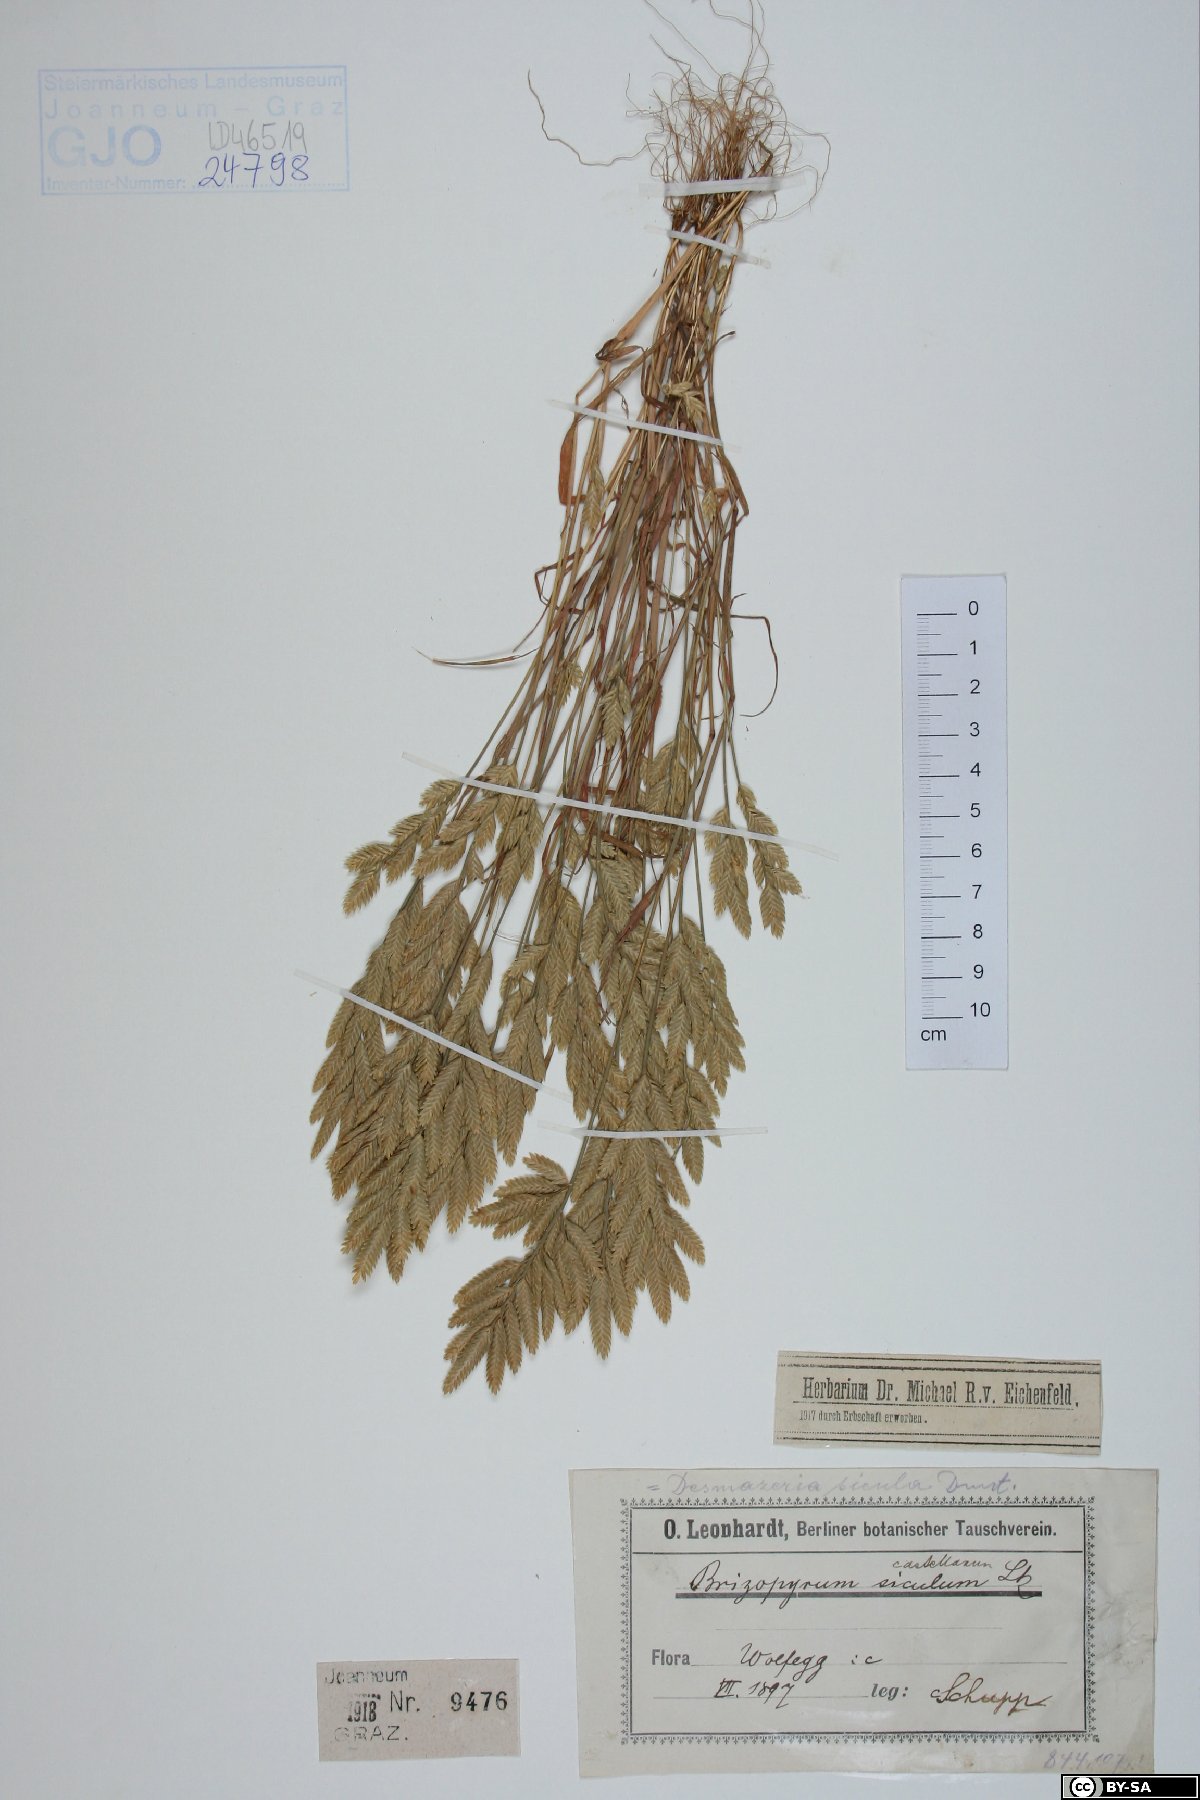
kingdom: Plantae
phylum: Tracheophyta
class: Liliopsida
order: Asparagales
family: Orchidaceae
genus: Chamorchis
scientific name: Chamorchis alpina
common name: Alpine chamorchis
